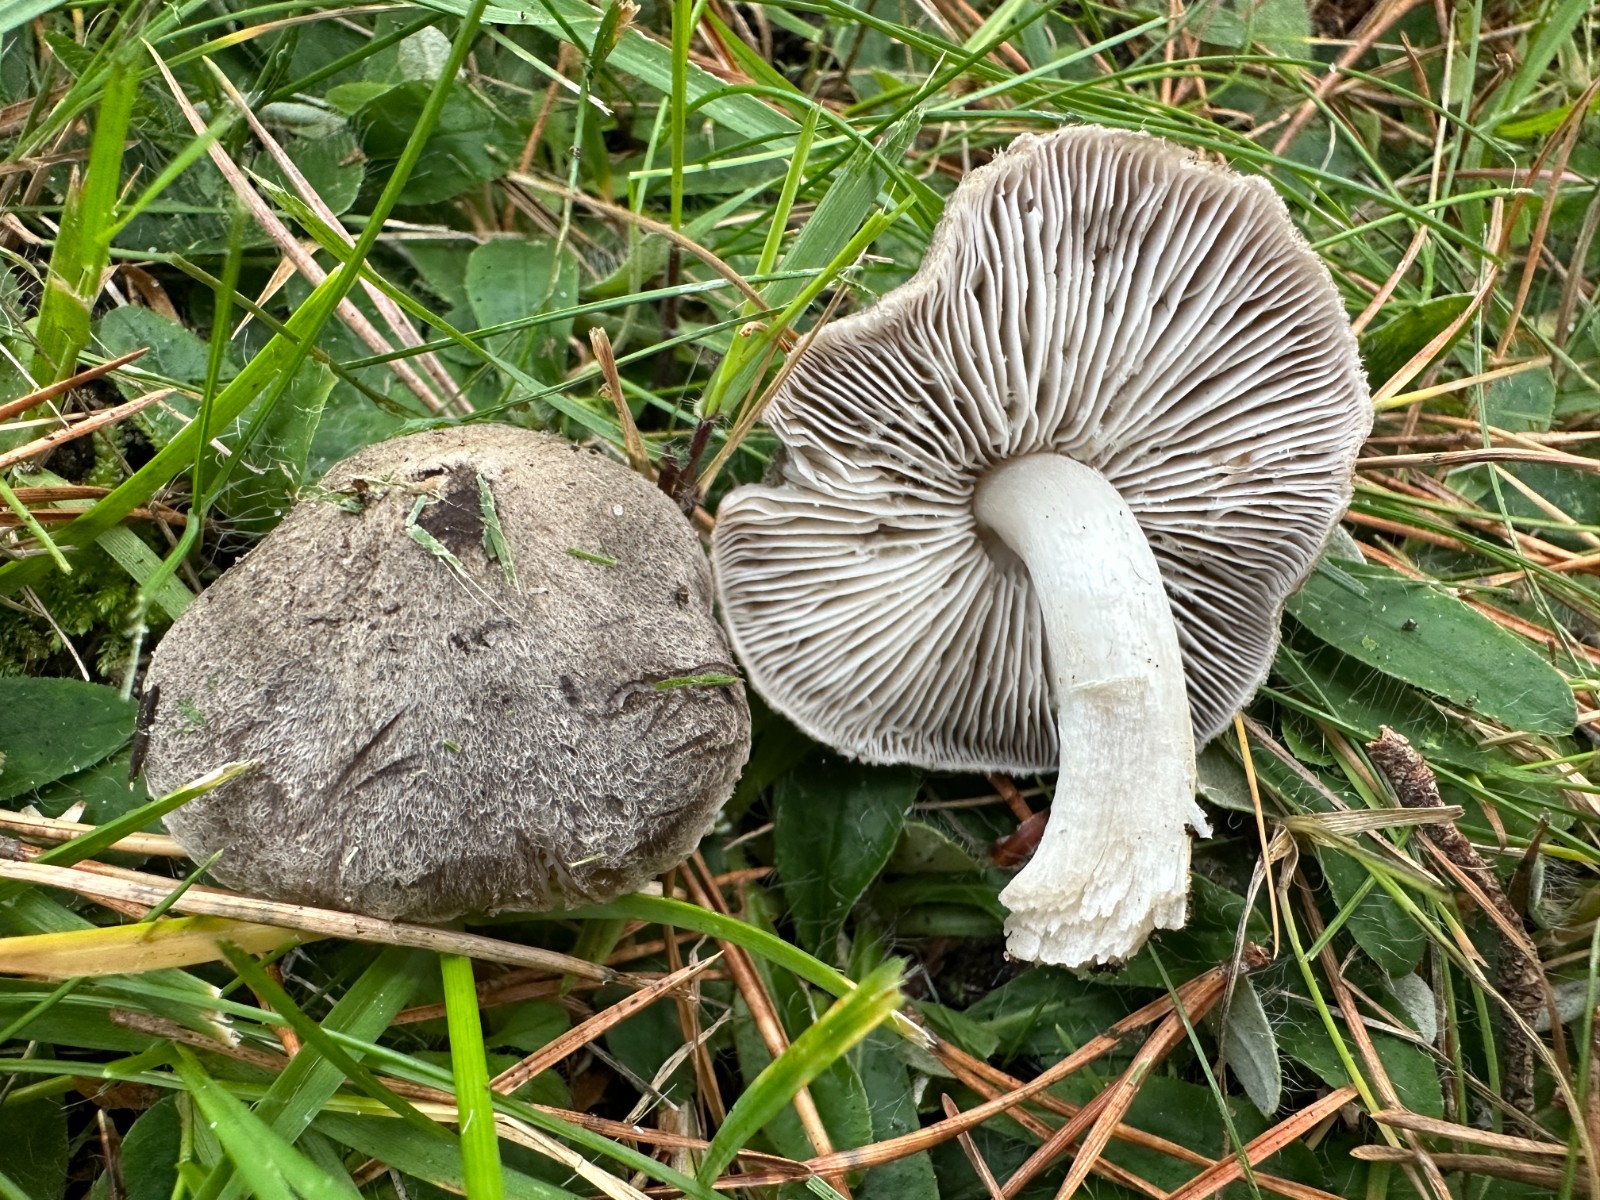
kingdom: Fungi
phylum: Basidiomycota
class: Agaricomycetes
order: Agaricales
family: Tricholomataceae
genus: Tricholoma
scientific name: Tricholoma terreum
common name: jordfarvet ridderhat
